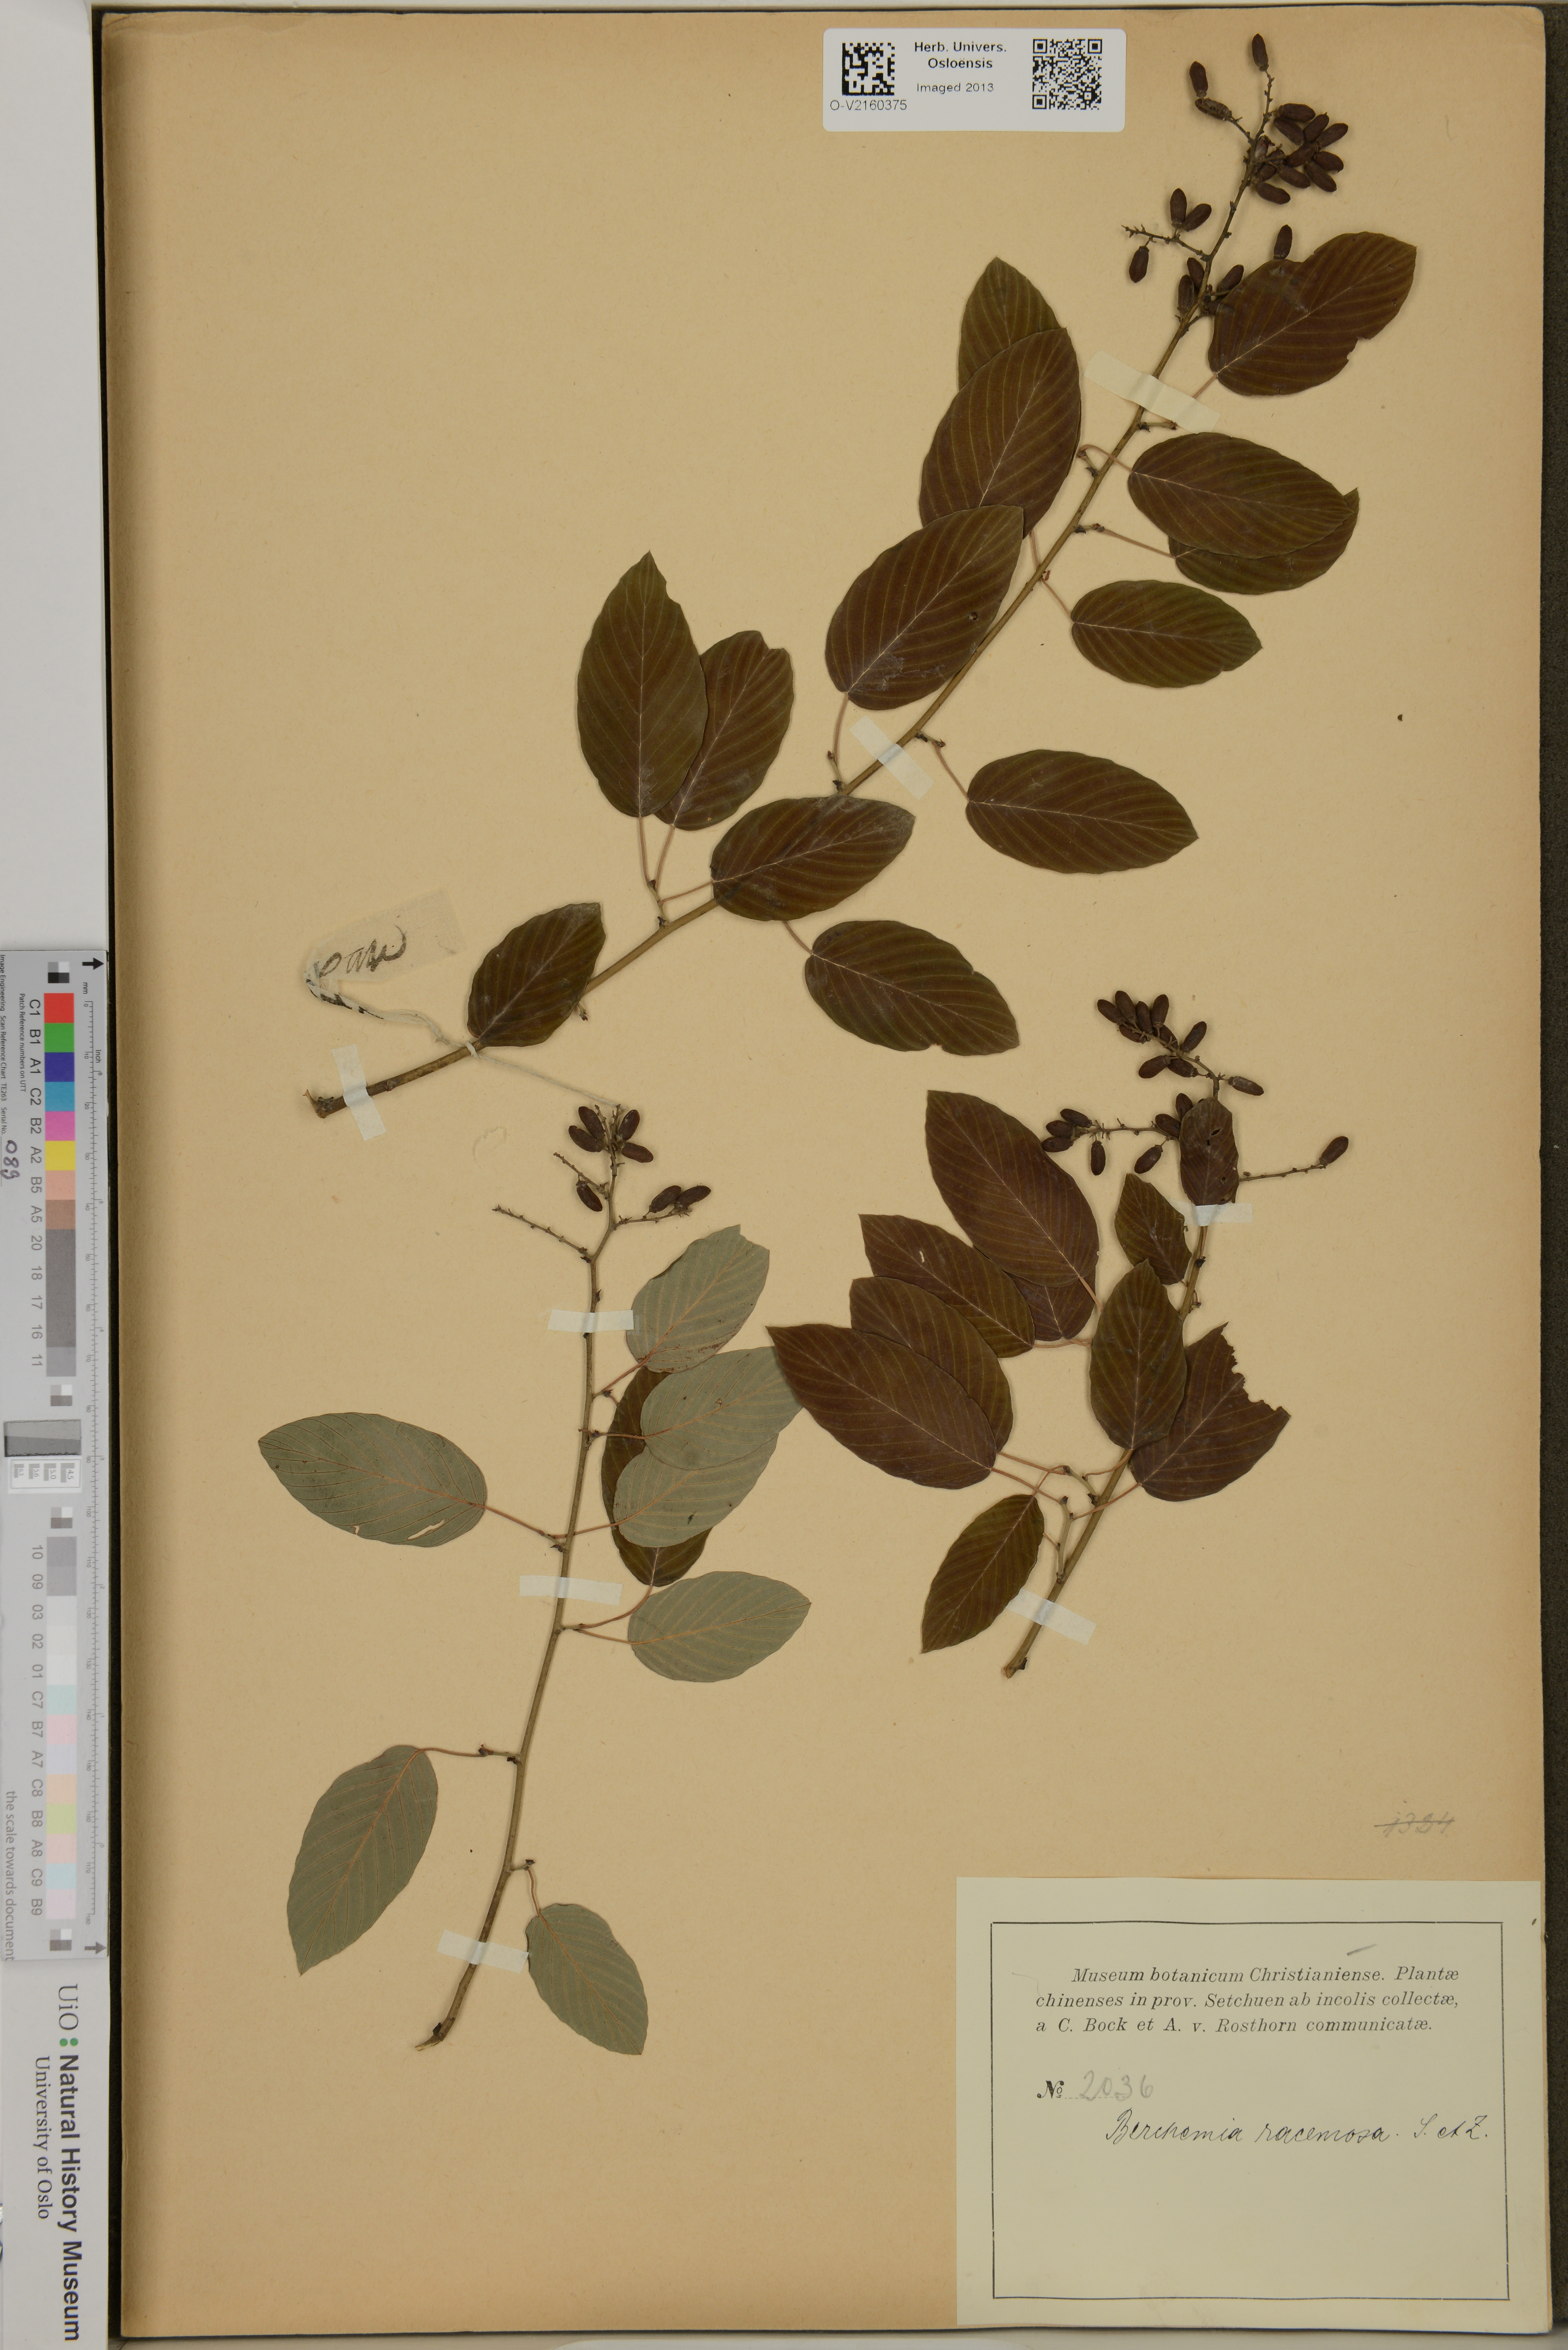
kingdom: Plantae
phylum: Tracheophyta
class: Magnoliopsida
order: Rosales
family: Rhamnaceae
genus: Berchemia
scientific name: Berchemia floribunda
